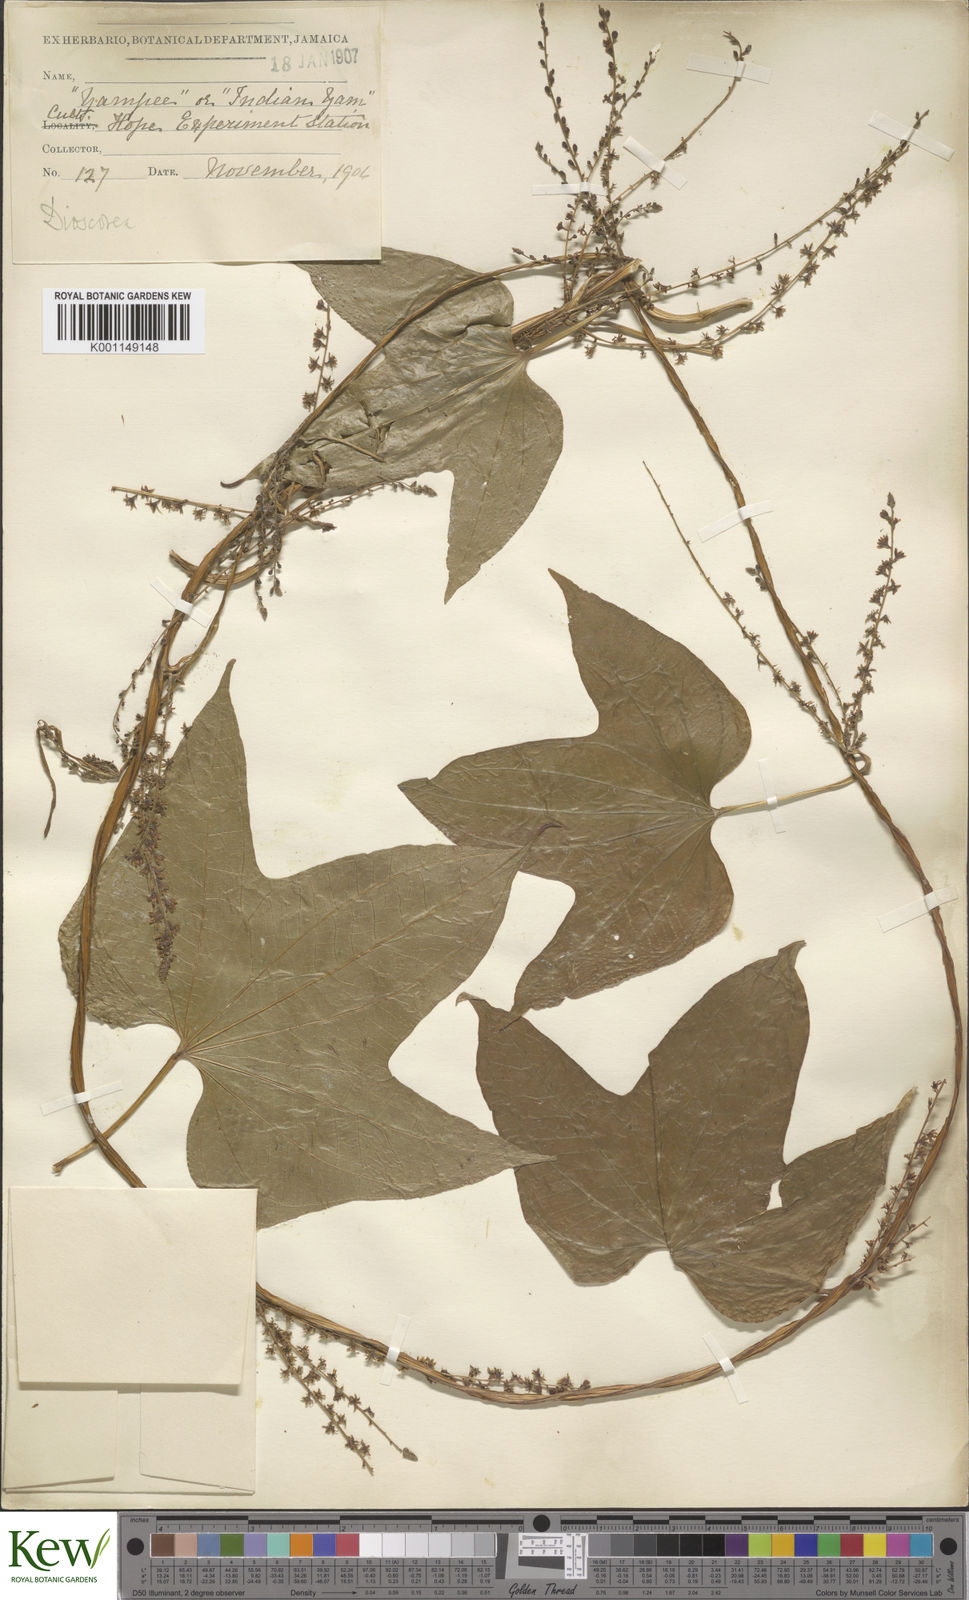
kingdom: Plantae
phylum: Tracheophyta
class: Liliopsida
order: Dioscoreales
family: Dioscoreaceae
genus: Dioscorea
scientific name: Dioscorea trifida
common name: Cush-cush
